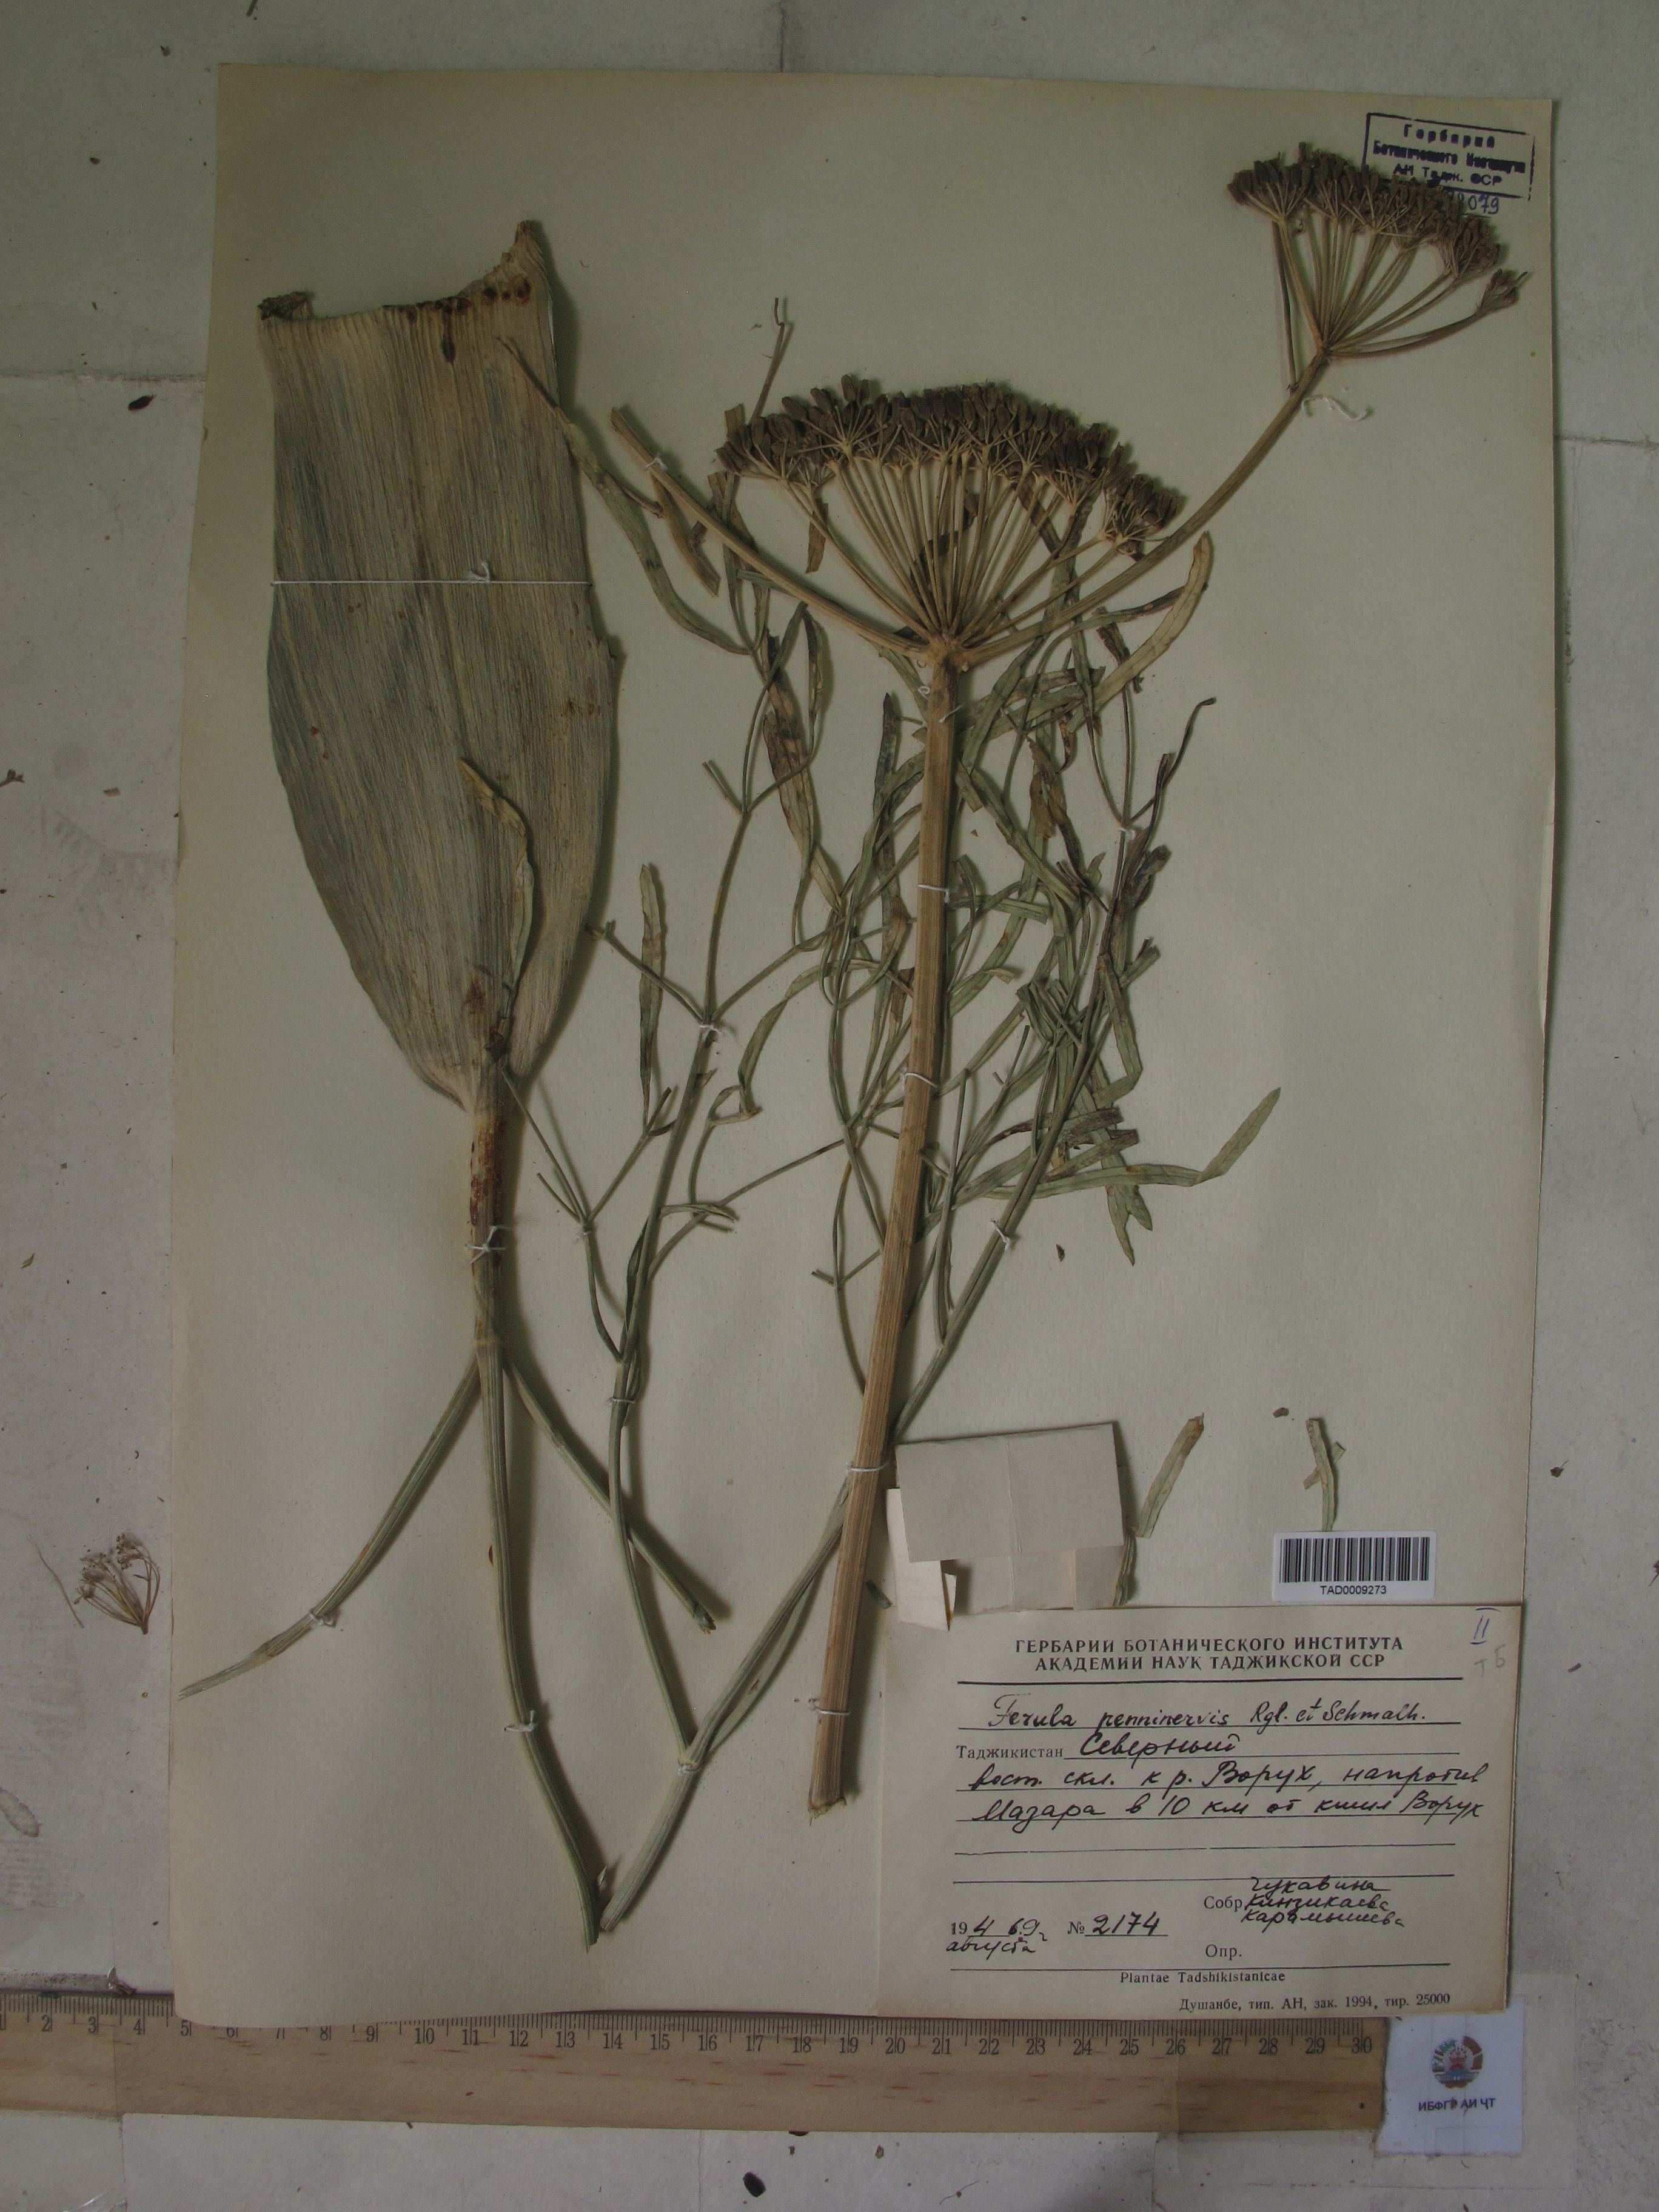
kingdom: Plantae
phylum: Tracheophyta
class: Magnoliopsida
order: Apiales
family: Apiaceae
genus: Ferula
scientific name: Ferula
